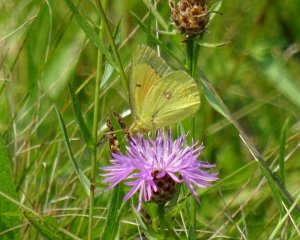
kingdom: Animalia
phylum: Arthropoda
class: Insecta
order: Lepidoptera
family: Pieridae
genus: Colias
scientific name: Colias eurytheme
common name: Orange Sulphur
